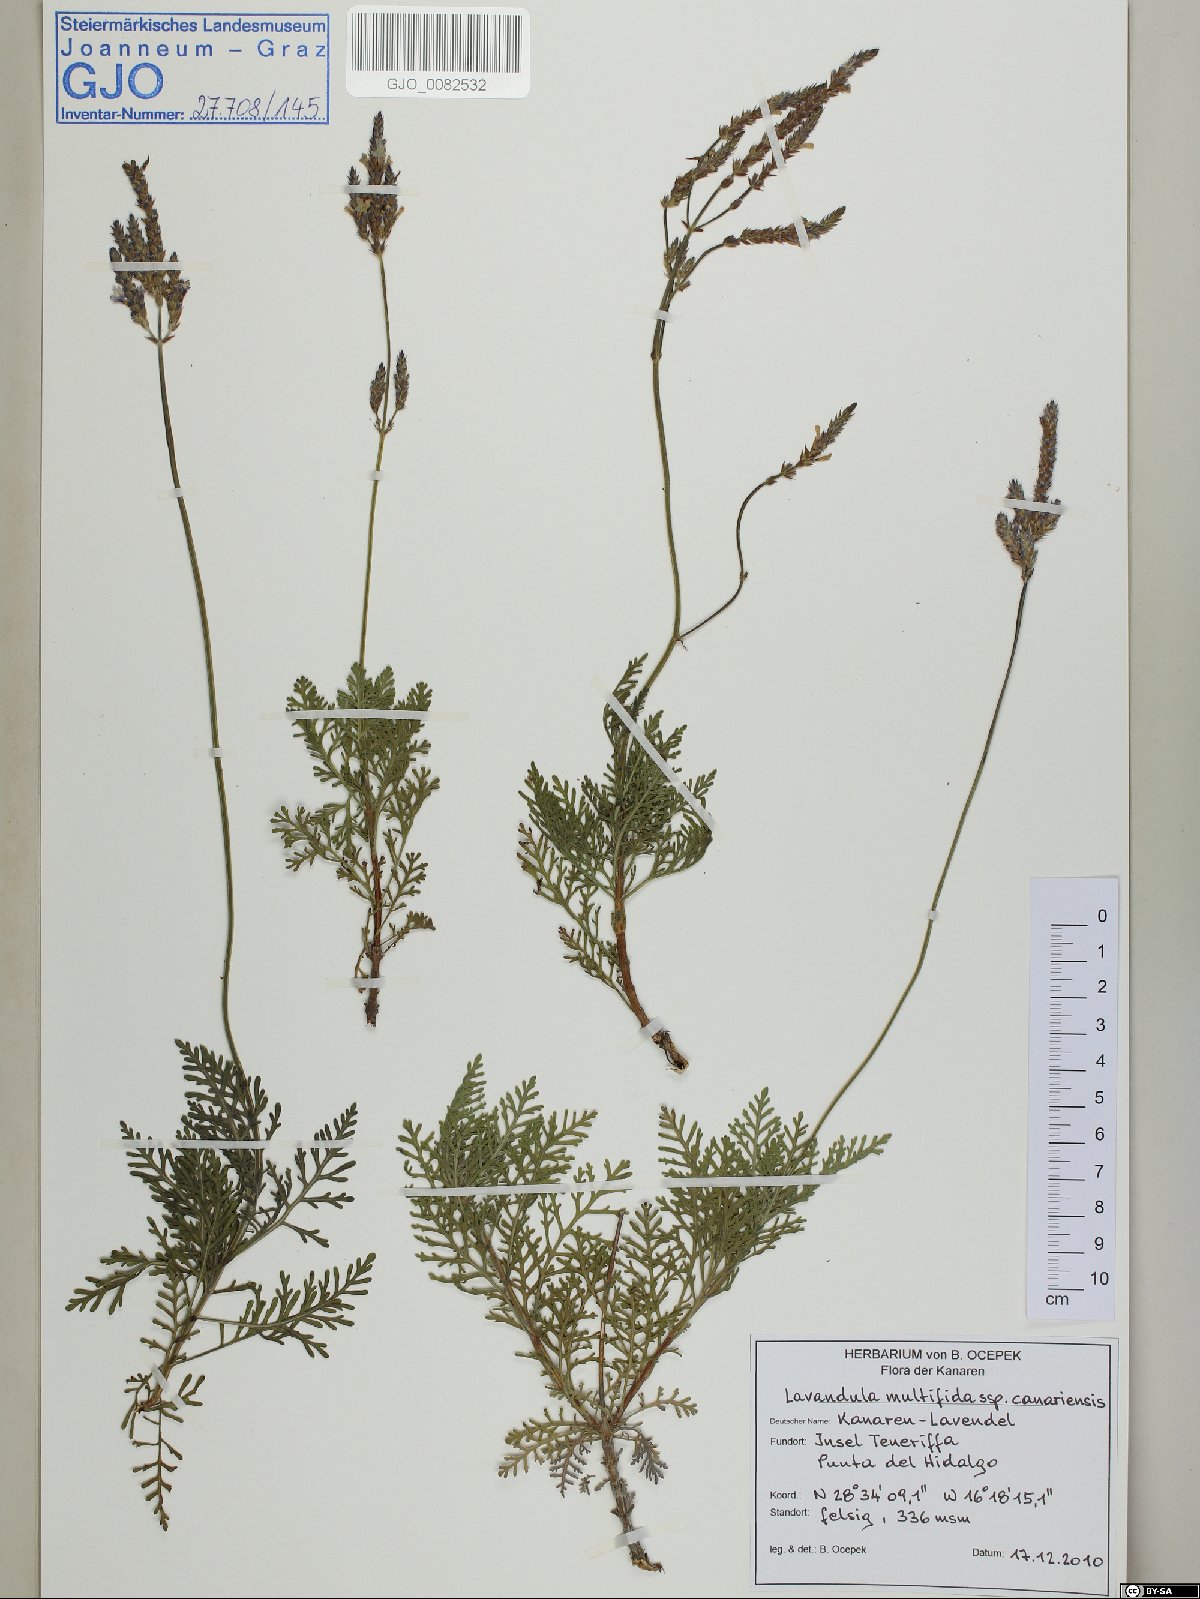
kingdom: Plantae
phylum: Tracheophyta
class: Magnoliopsida
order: Lamiales
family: Lamiaceae
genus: Lavandula
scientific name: Lavandula canariensis
